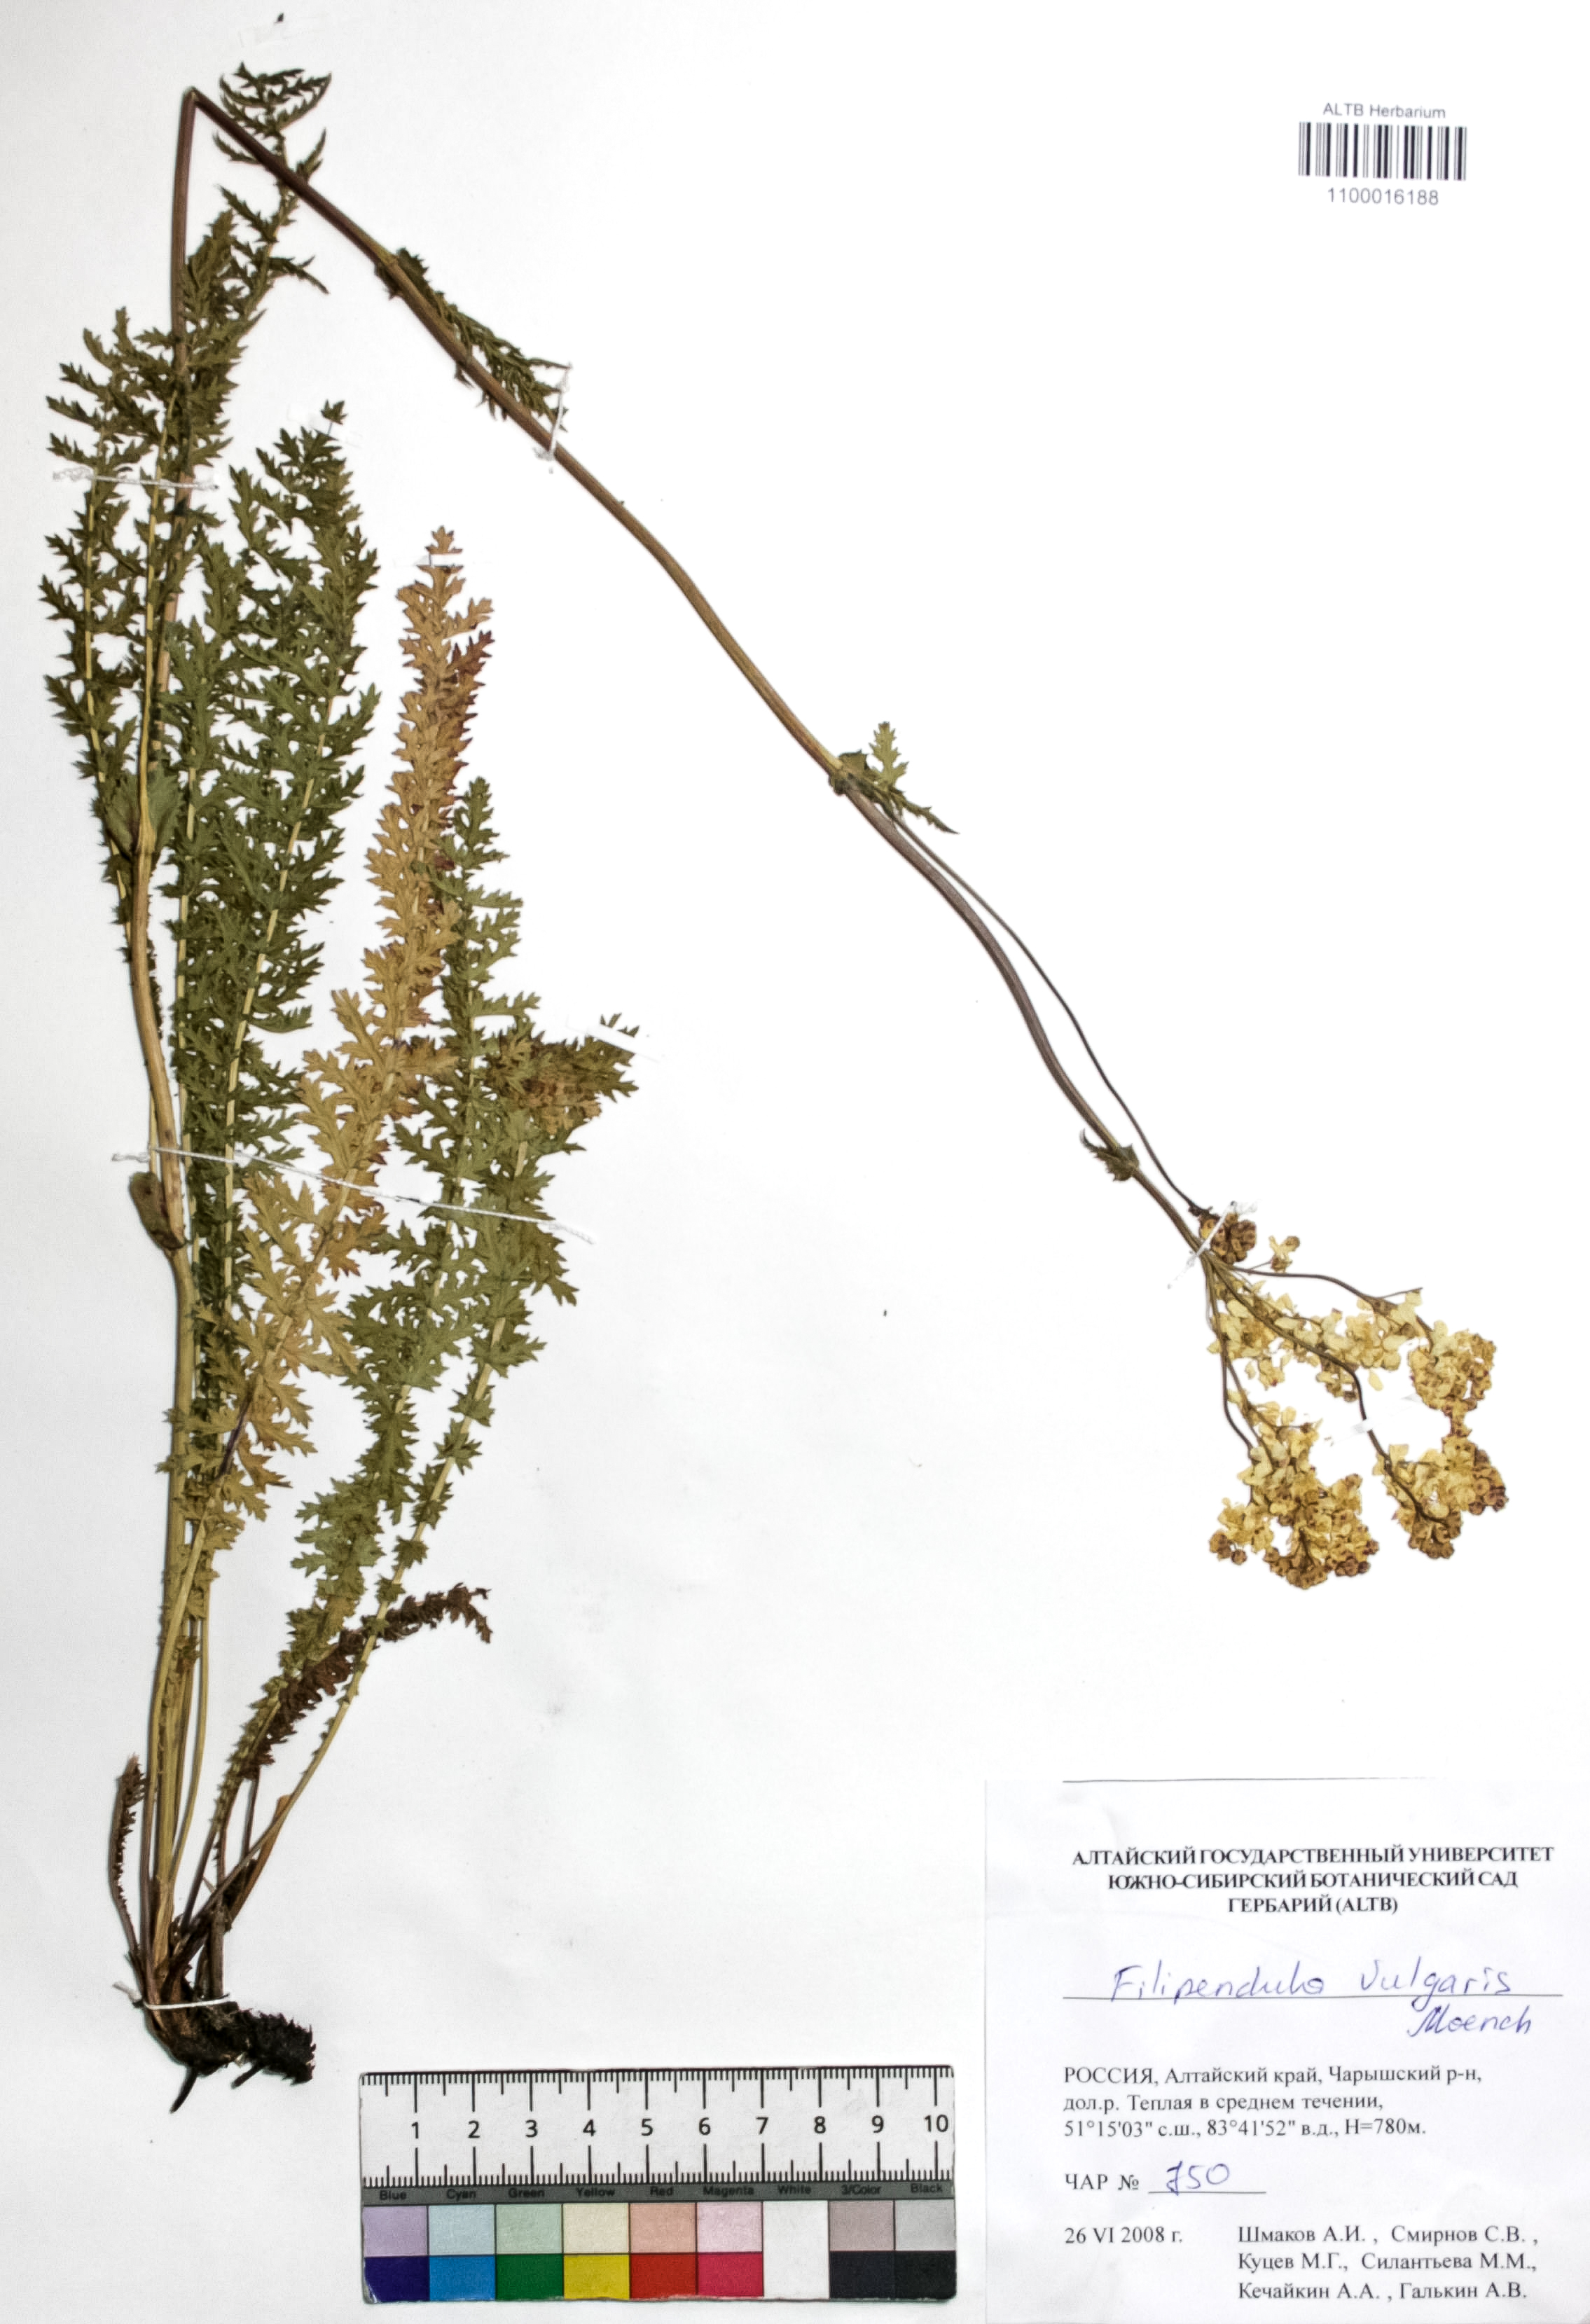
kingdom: Plantae
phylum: Tracheophyta
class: Magnoliopsida
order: Rosales
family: Rosaceae
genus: Filipendula
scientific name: Filipendula vulgaris
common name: Dropwort
